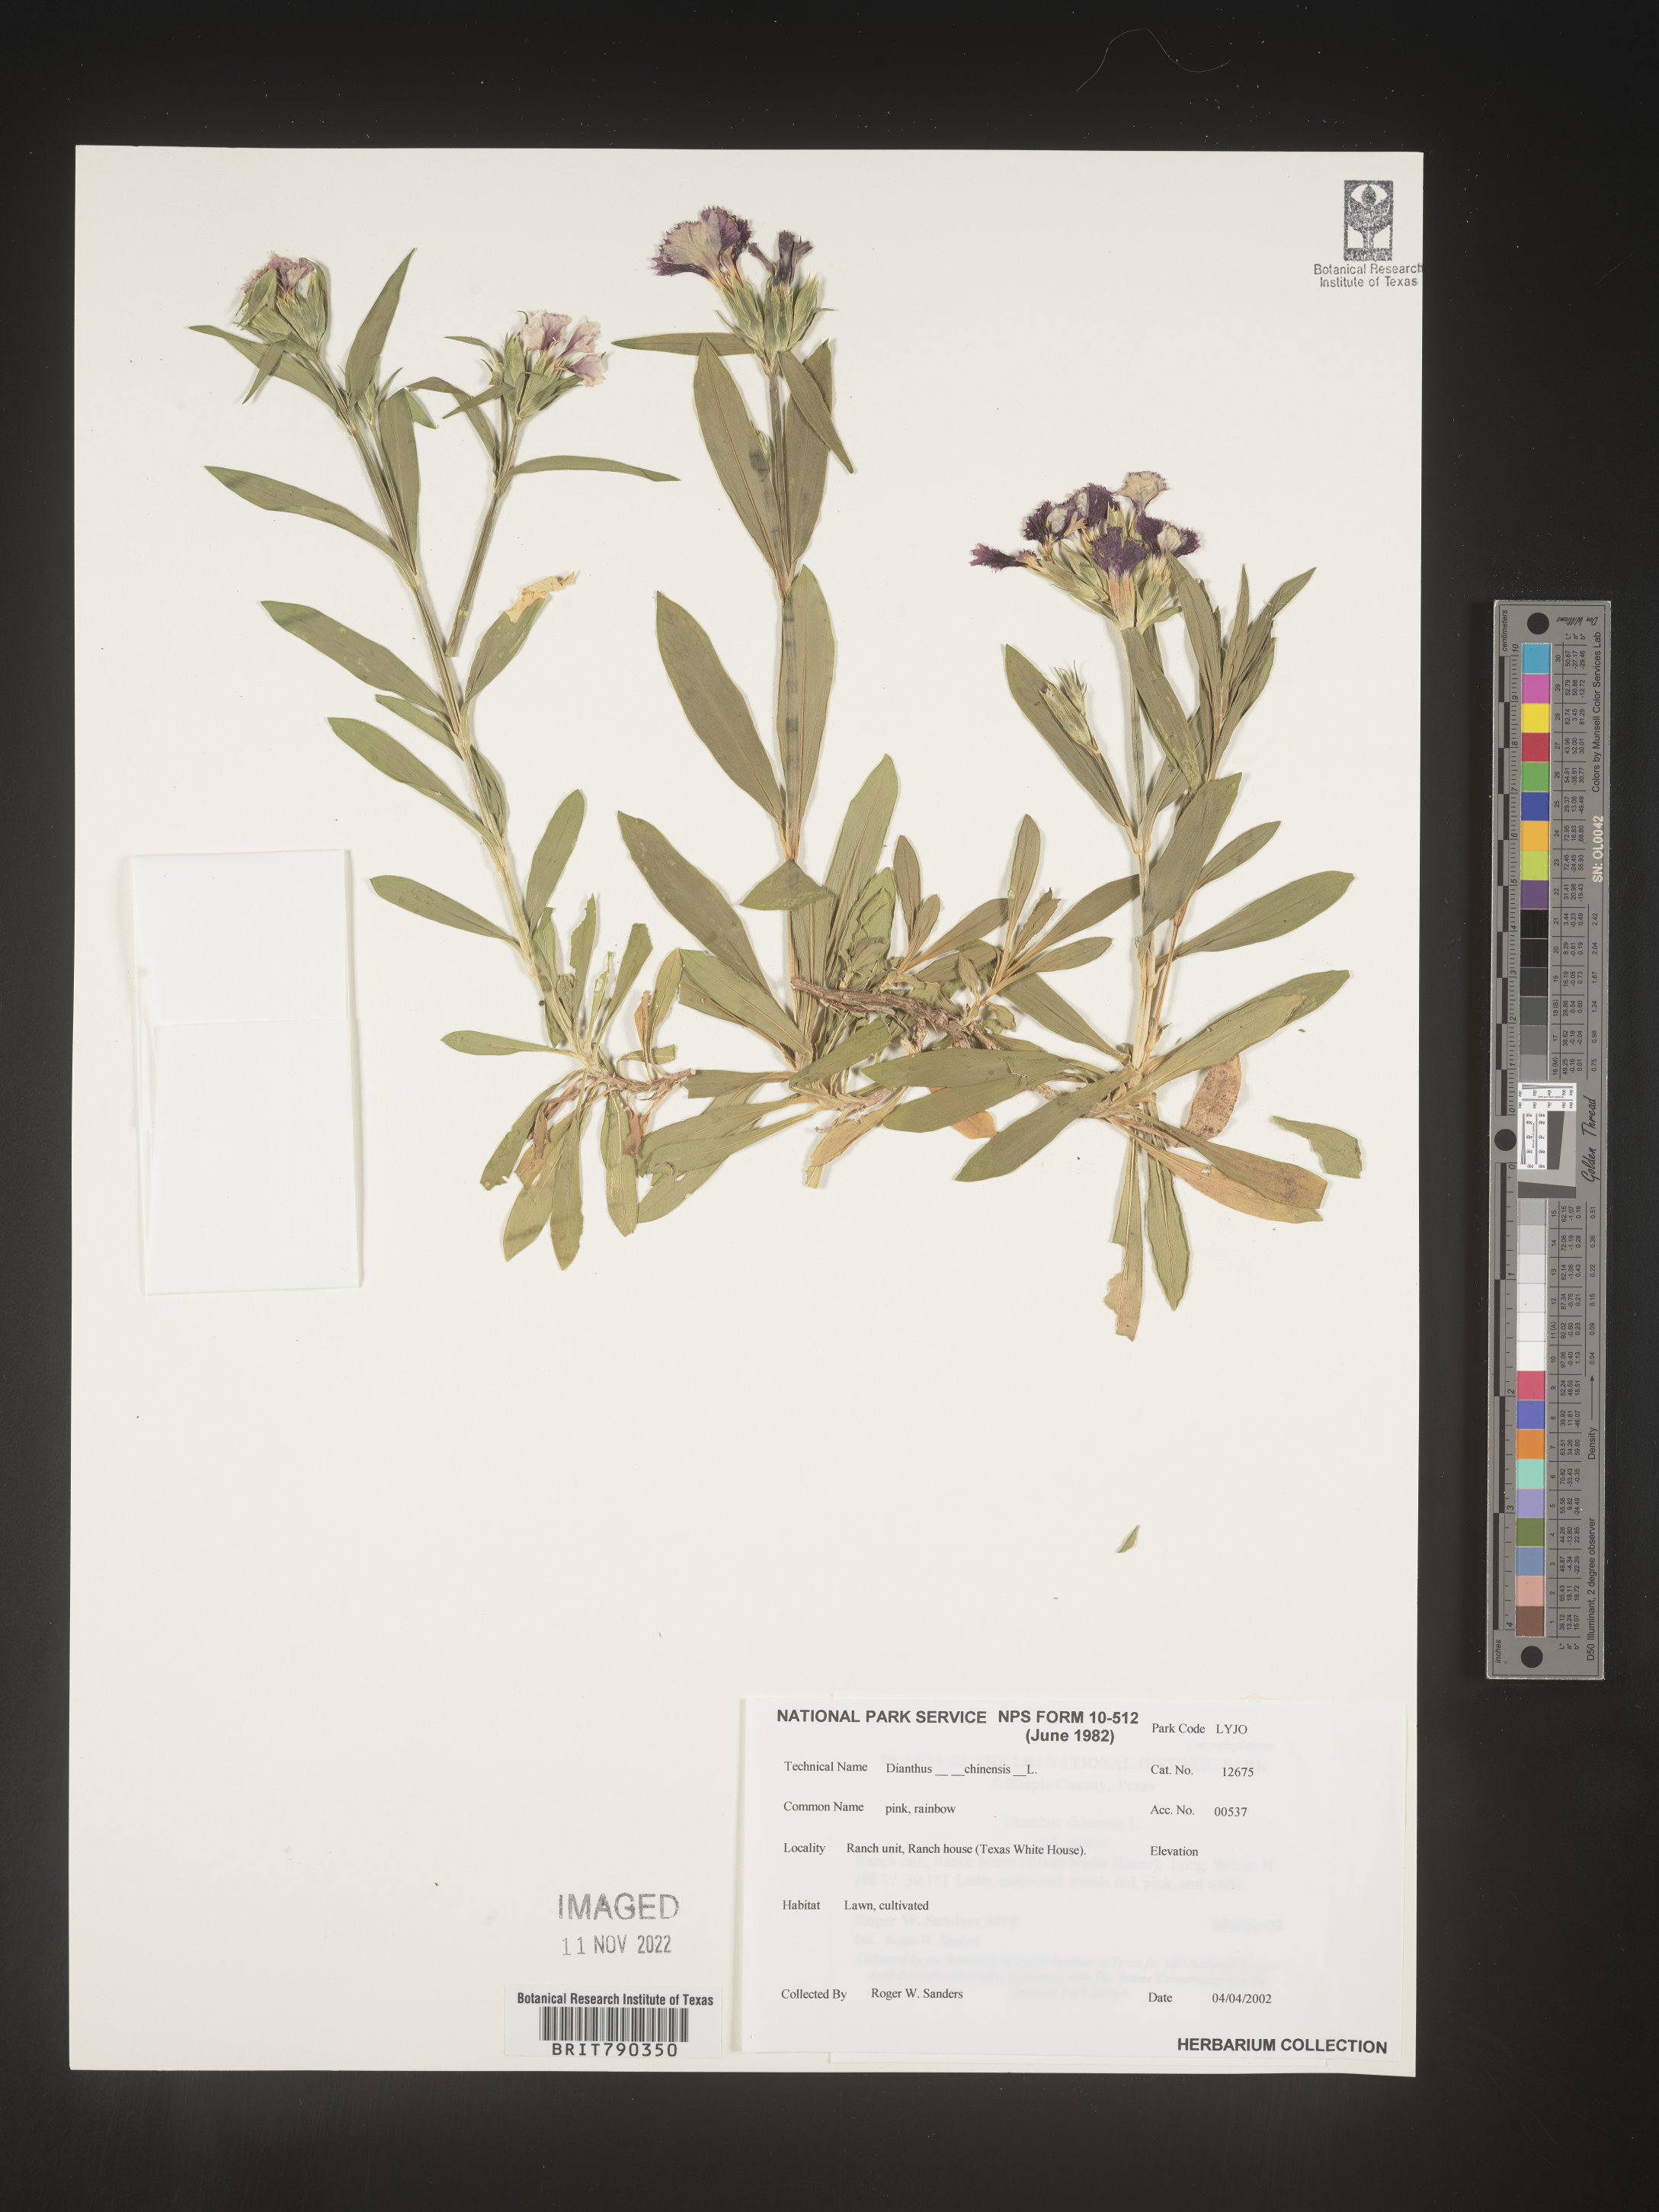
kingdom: Plantae
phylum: Tracheophyta
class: Magnoliopsida
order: Caryophyllales
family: Caryophyllaceae
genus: Dianthus
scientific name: Dianthus
